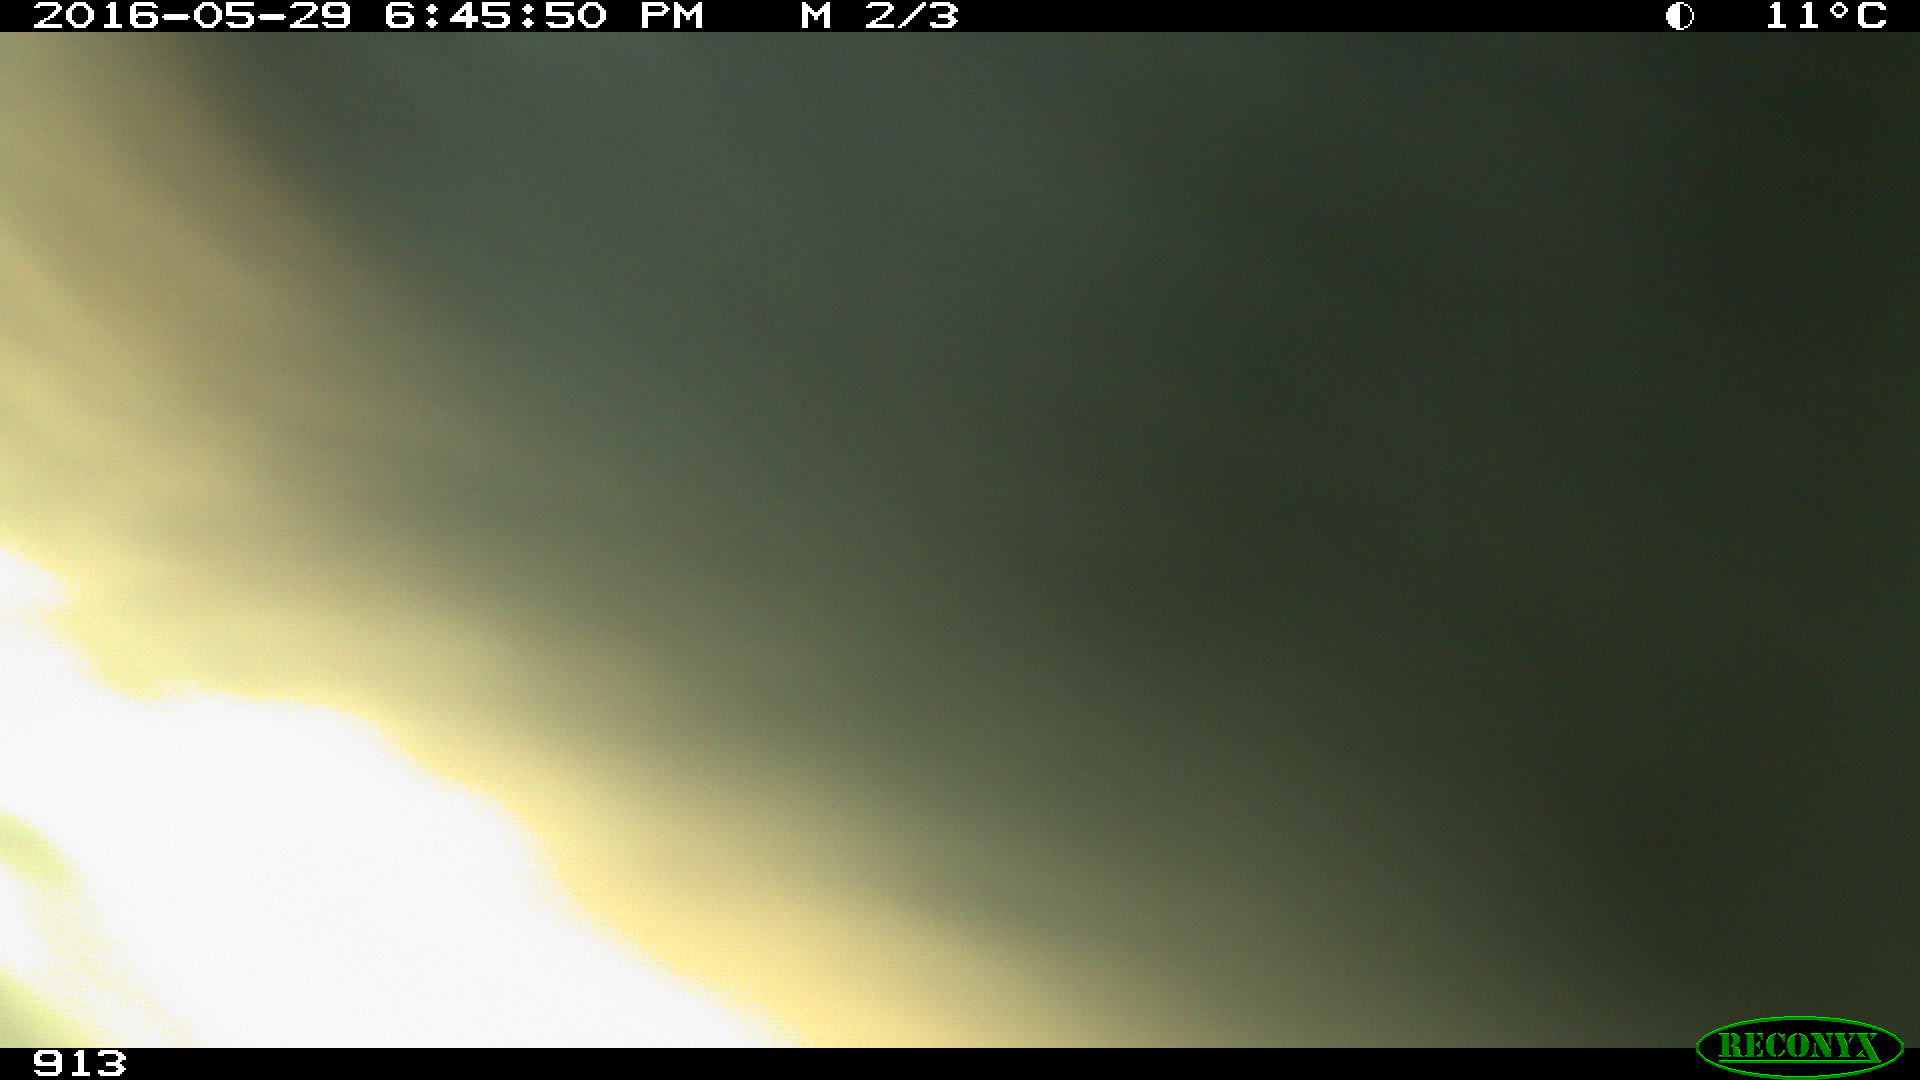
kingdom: Animalia
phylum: Chordata
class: Mammalia
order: Artiodactyla
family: Bovidae
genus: Bos
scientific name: Bos taurus
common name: Domesticated cattle
